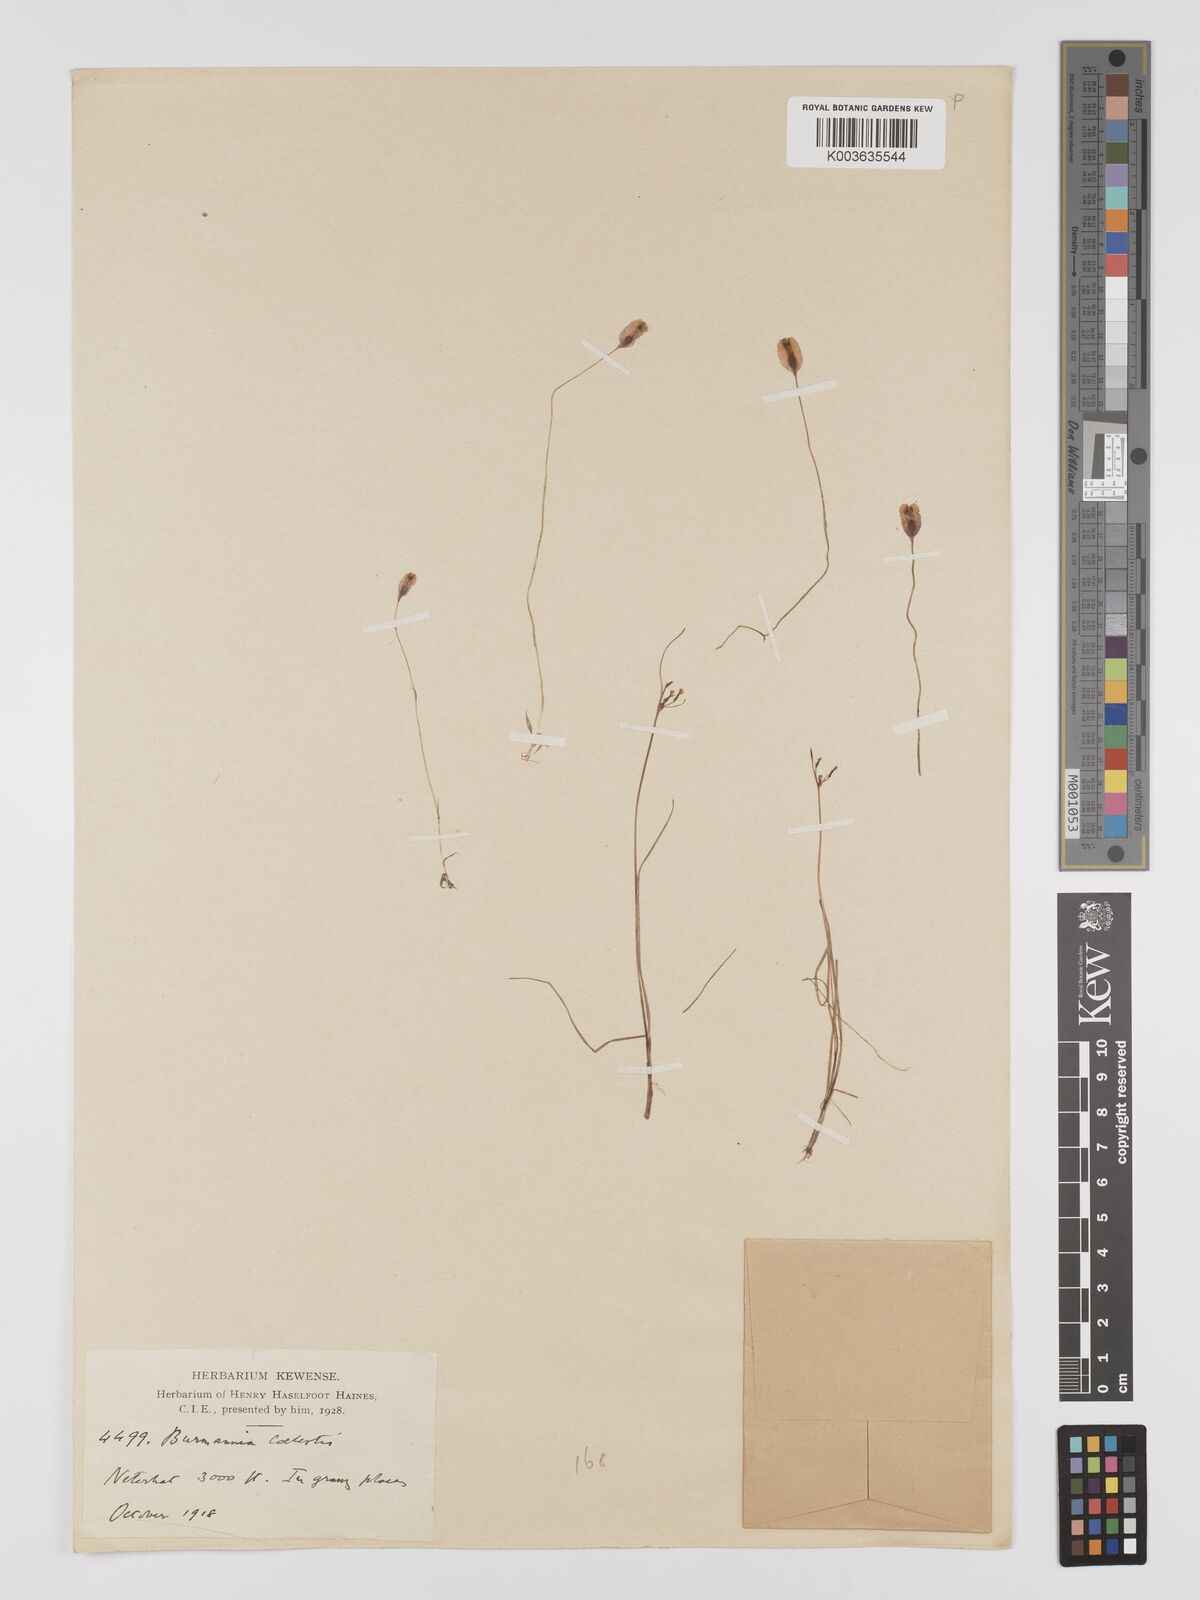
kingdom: Plantae
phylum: Tracheophyta
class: Liliopsida
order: Dioscoreales
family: Burmanniaceae
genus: Burmannia
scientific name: Burmannia coelestis
